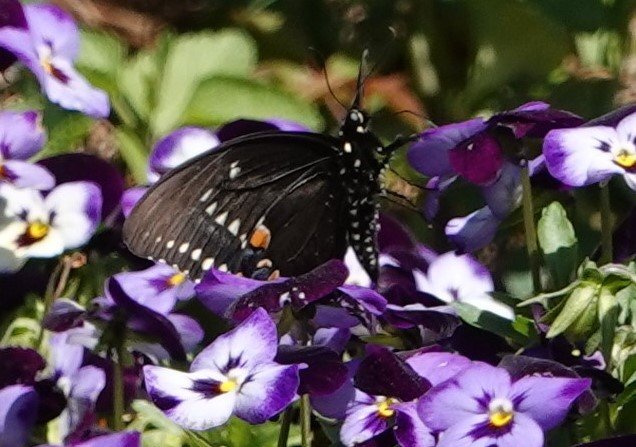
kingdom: Animalia
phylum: Arthropoda
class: Insecta
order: Lepidoptera
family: Papilionidae
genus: Pterourus
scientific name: Pterourus troilus
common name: Spicebush Swallowtail
